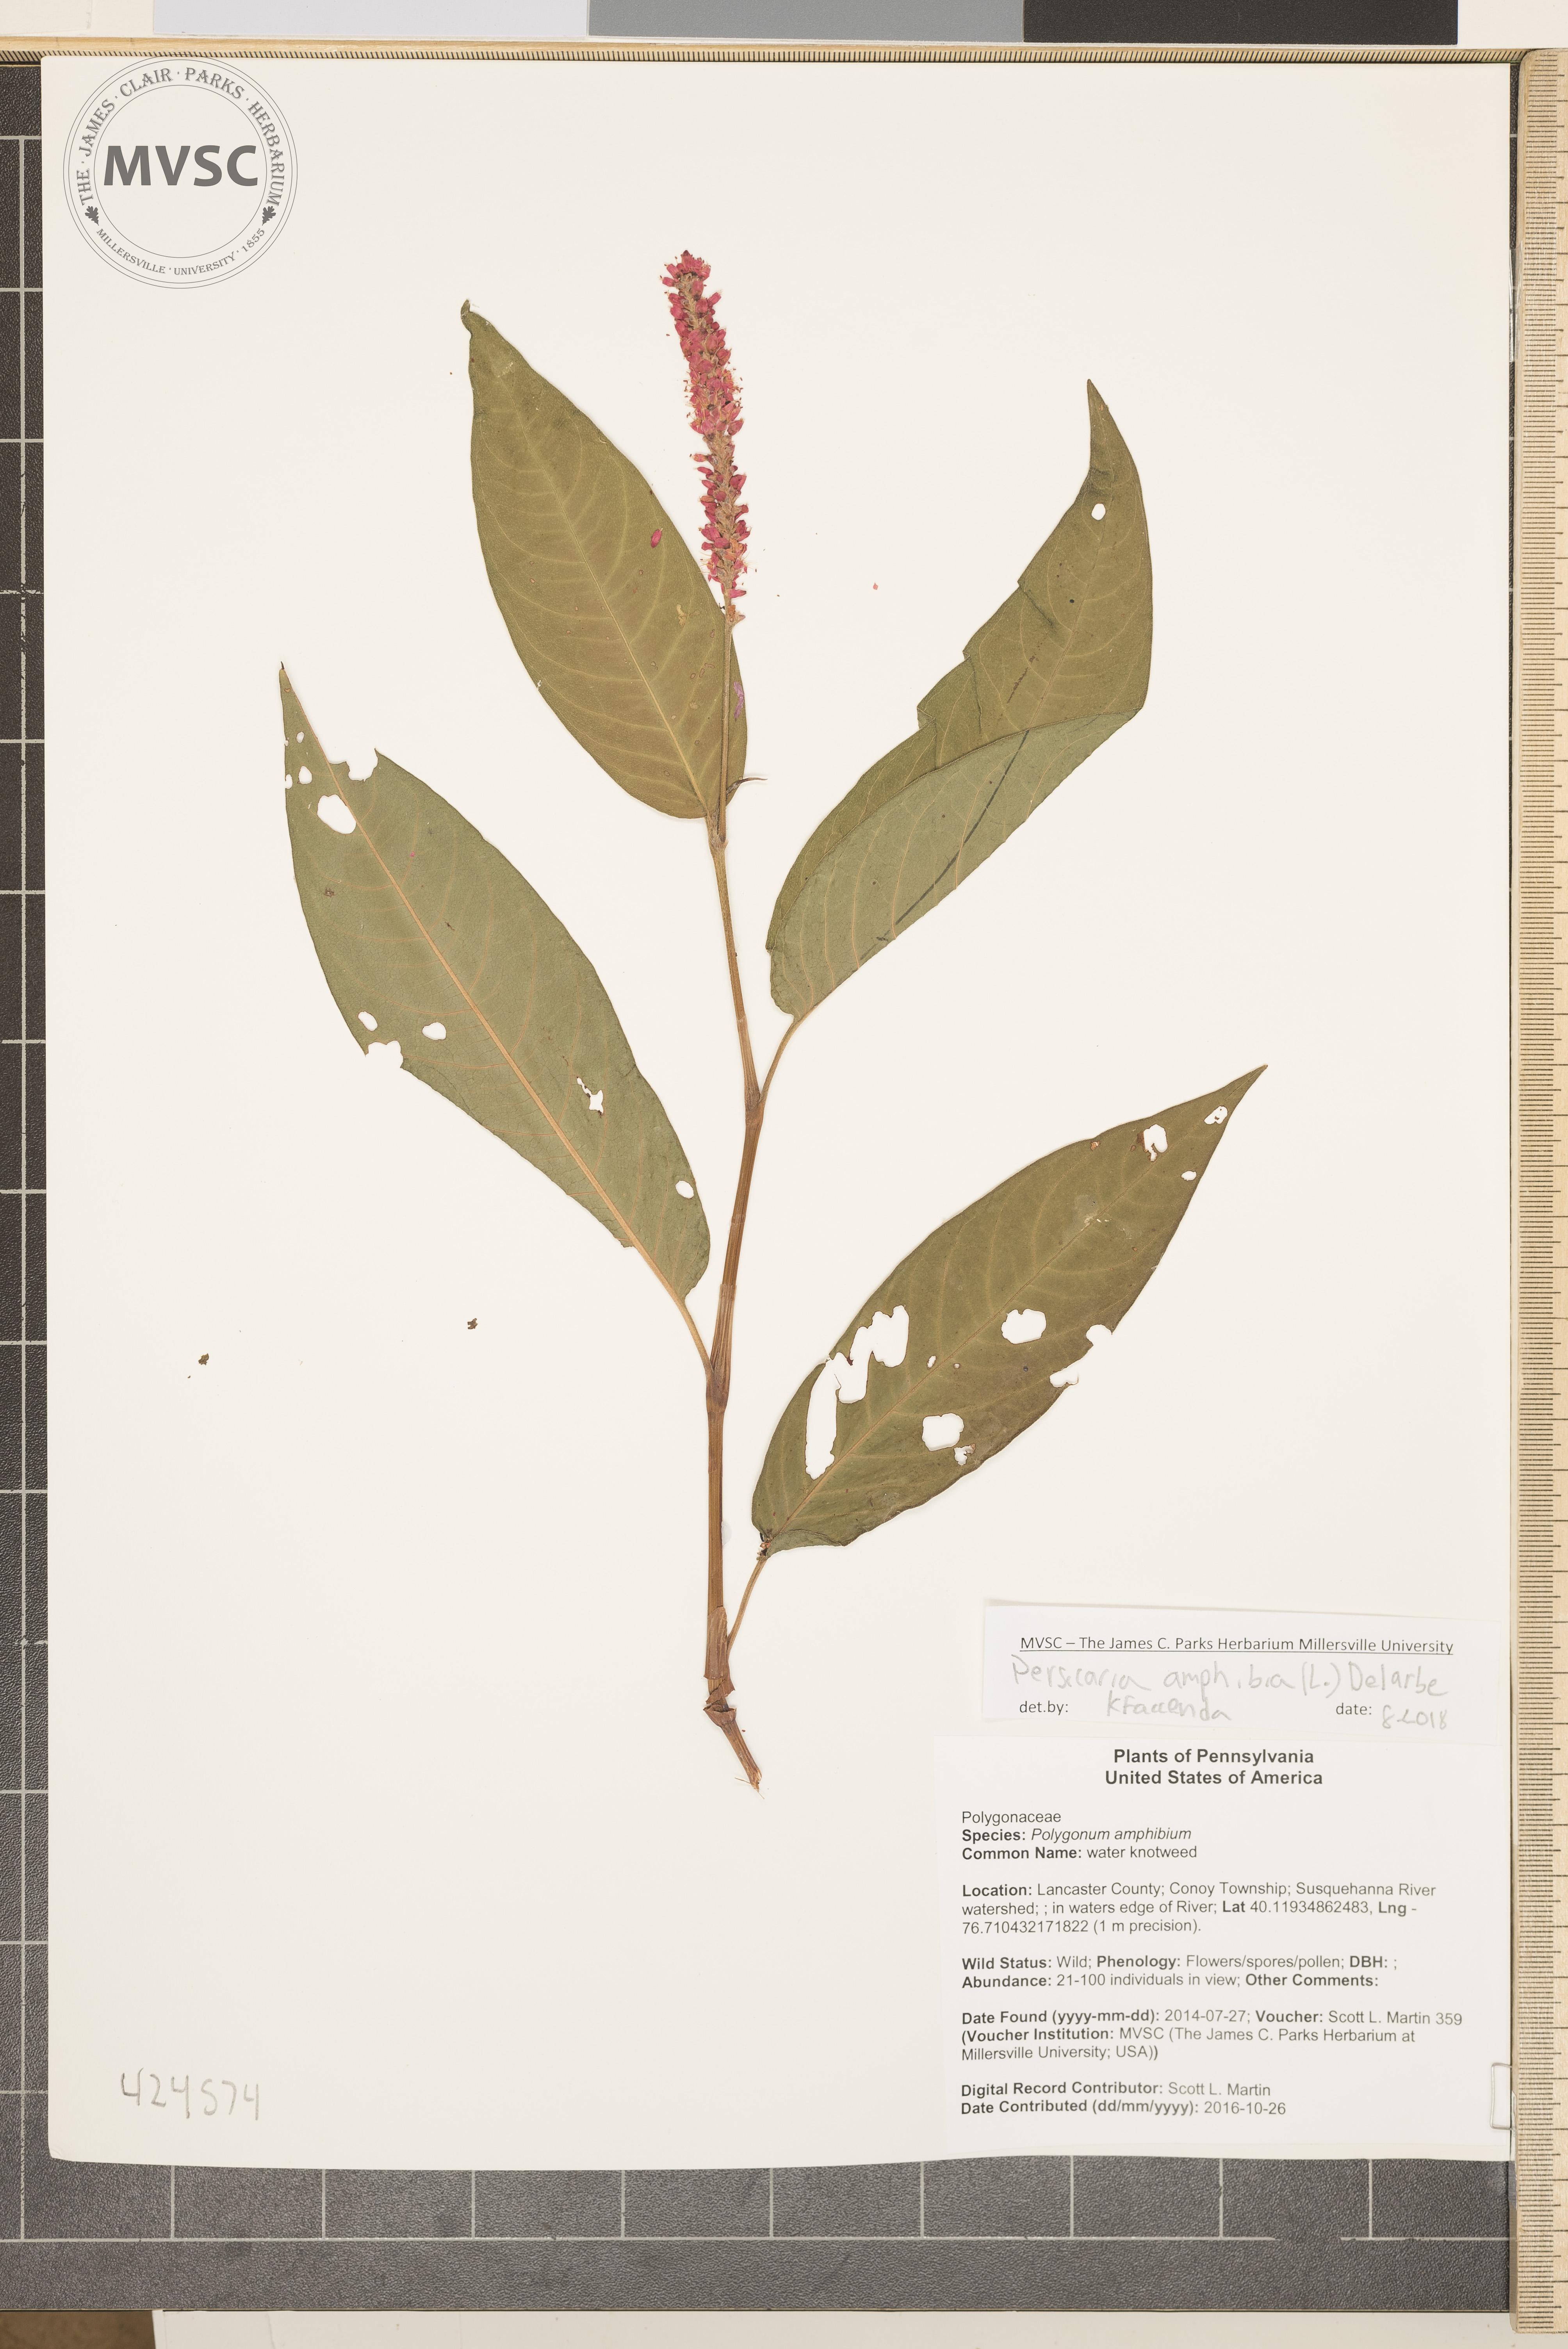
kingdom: Plantae
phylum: Tracheophyta
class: Magnoliopsida
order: Caryophyllales
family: Polygonaceae
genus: Persicaria
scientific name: Persicaria amphibia
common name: water knotweed
